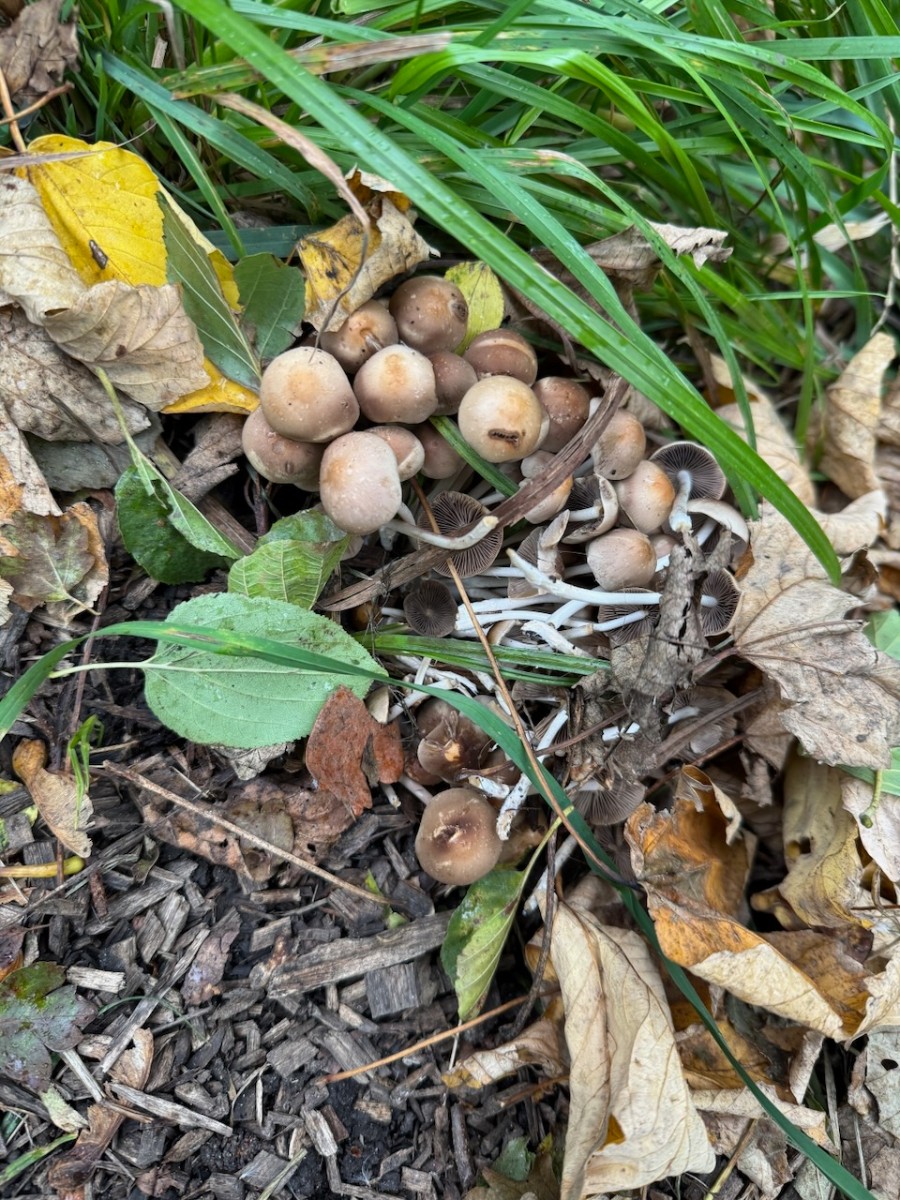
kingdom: Fungi
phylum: Basidiomycota
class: Agaricomycetes
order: Agaricales
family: Psathyrellaceae
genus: Britzelmayria
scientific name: Britzelmayria multipedata
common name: knippe-mørkhat
